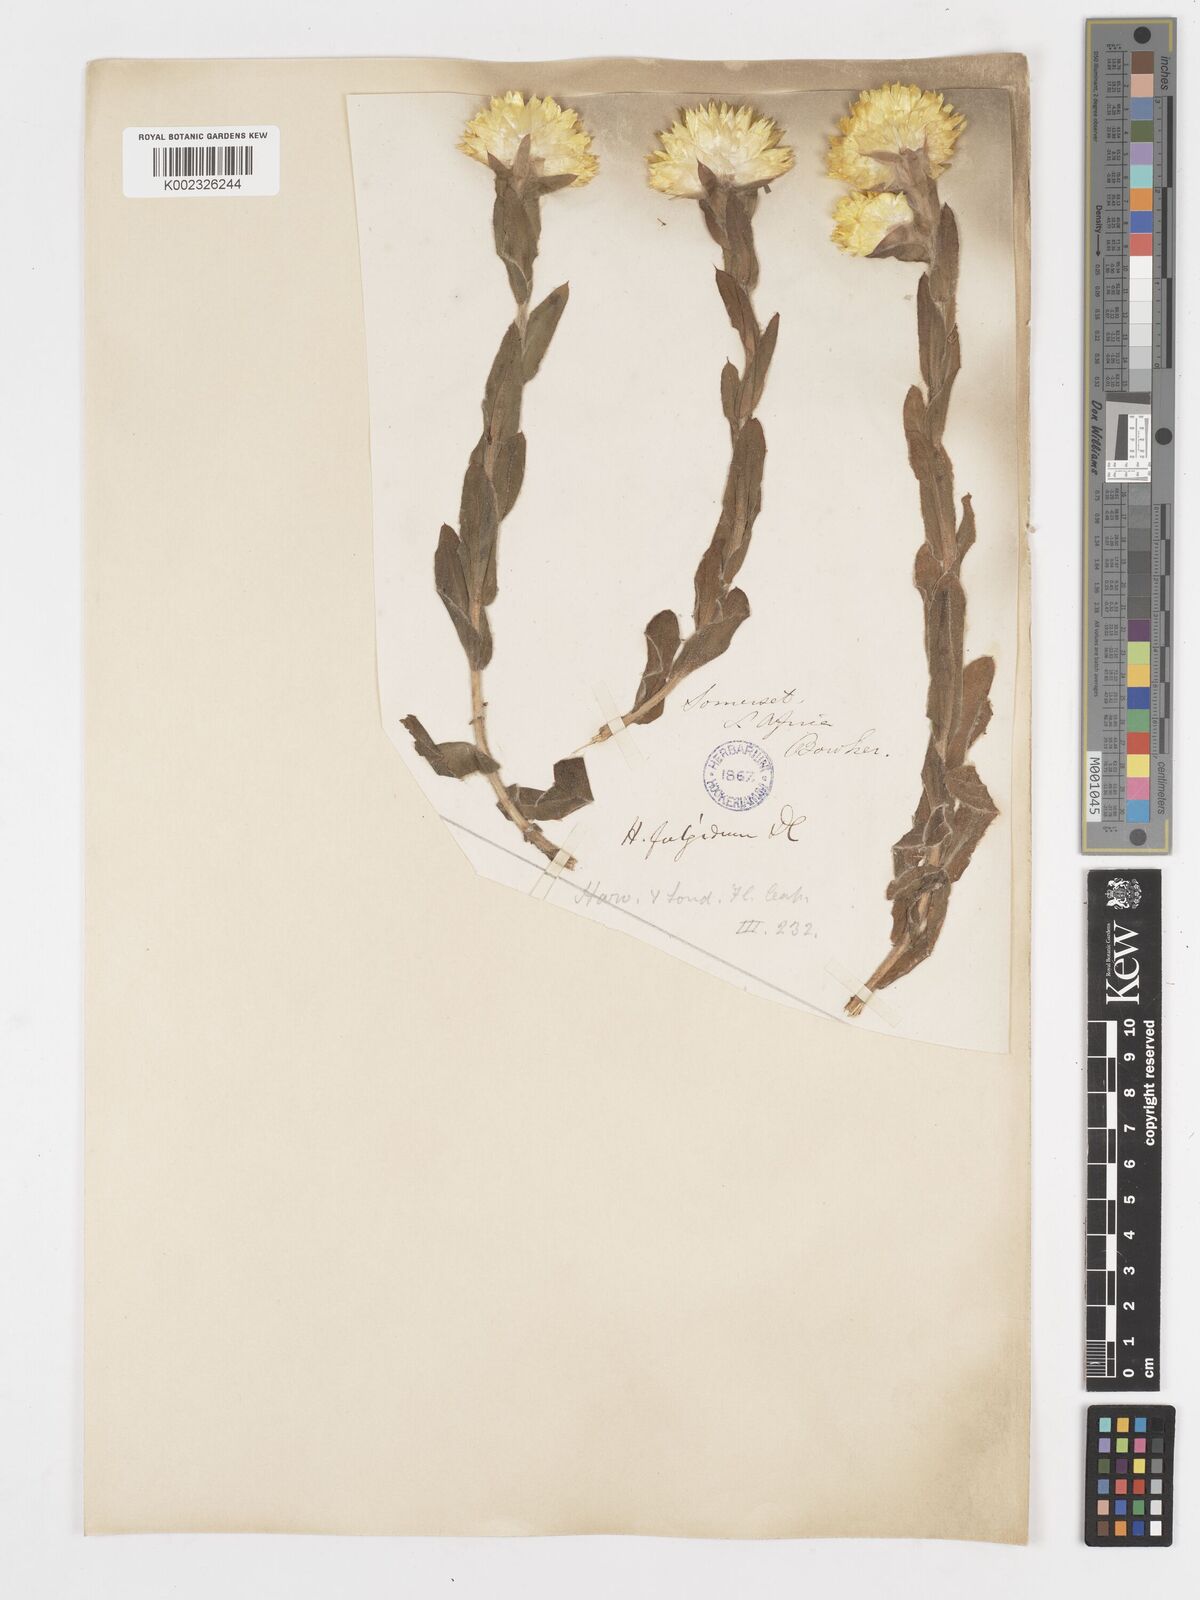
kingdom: Plantae
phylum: Tracheophyta
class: Magnoliopsida
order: Asterales
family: Asteraceae
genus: Helichrysum
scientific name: Helichrysum aureum
